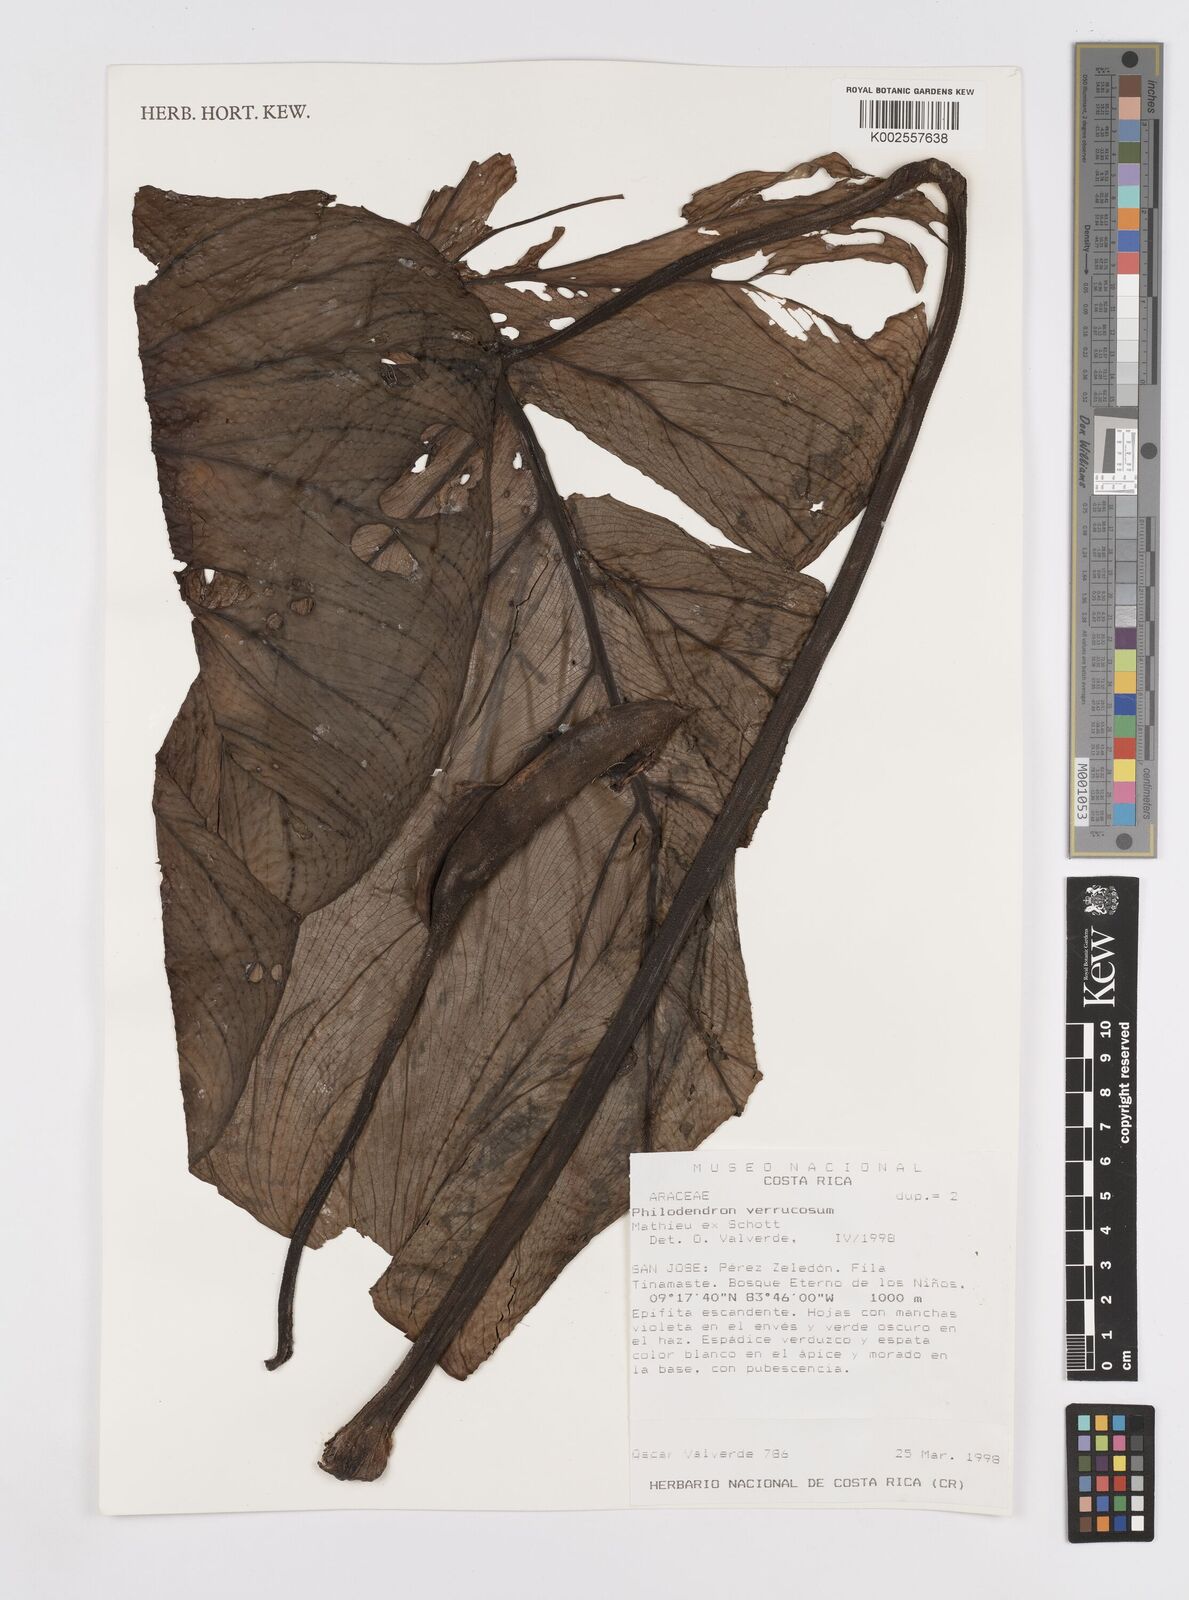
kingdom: Plantae
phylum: Tracheophyta
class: Liliopsida
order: Alismatales
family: Araceae
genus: Philodendron
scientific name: Philodendron verrucosum
